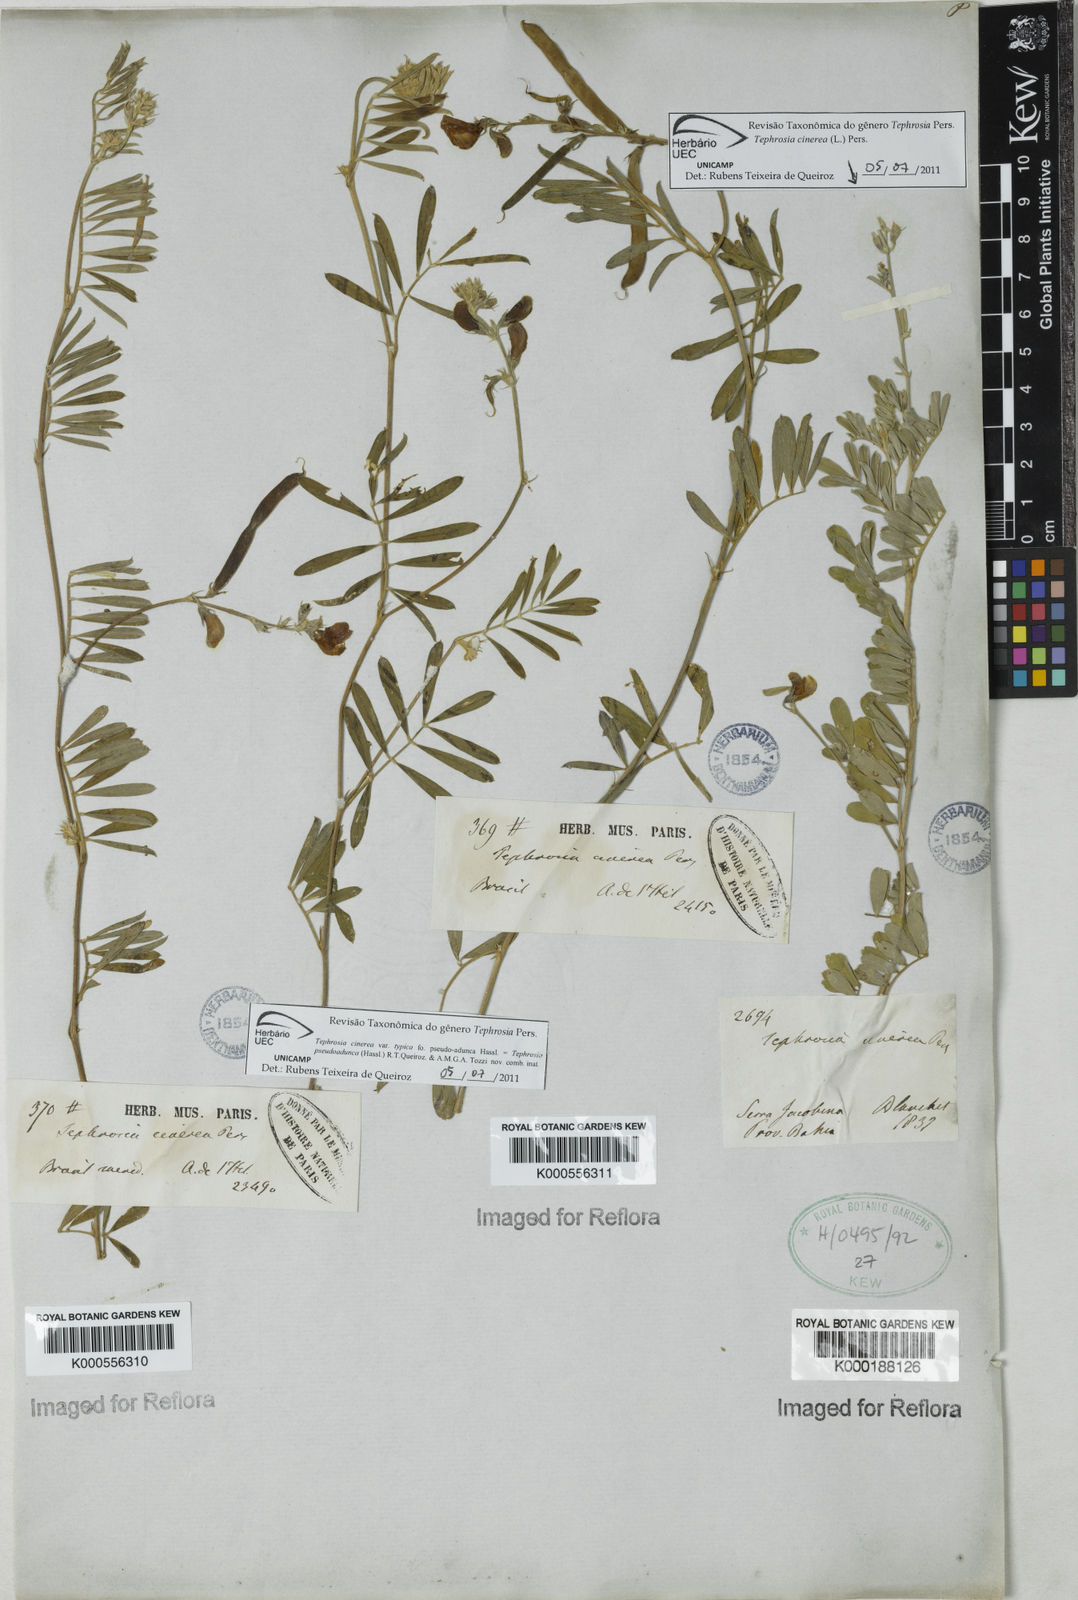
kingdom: Plantae
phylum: Tracheophyta
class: Magnoliopsida
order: Fabales
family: Fabaceae
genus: Tephrosia
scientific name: Tephrosia
